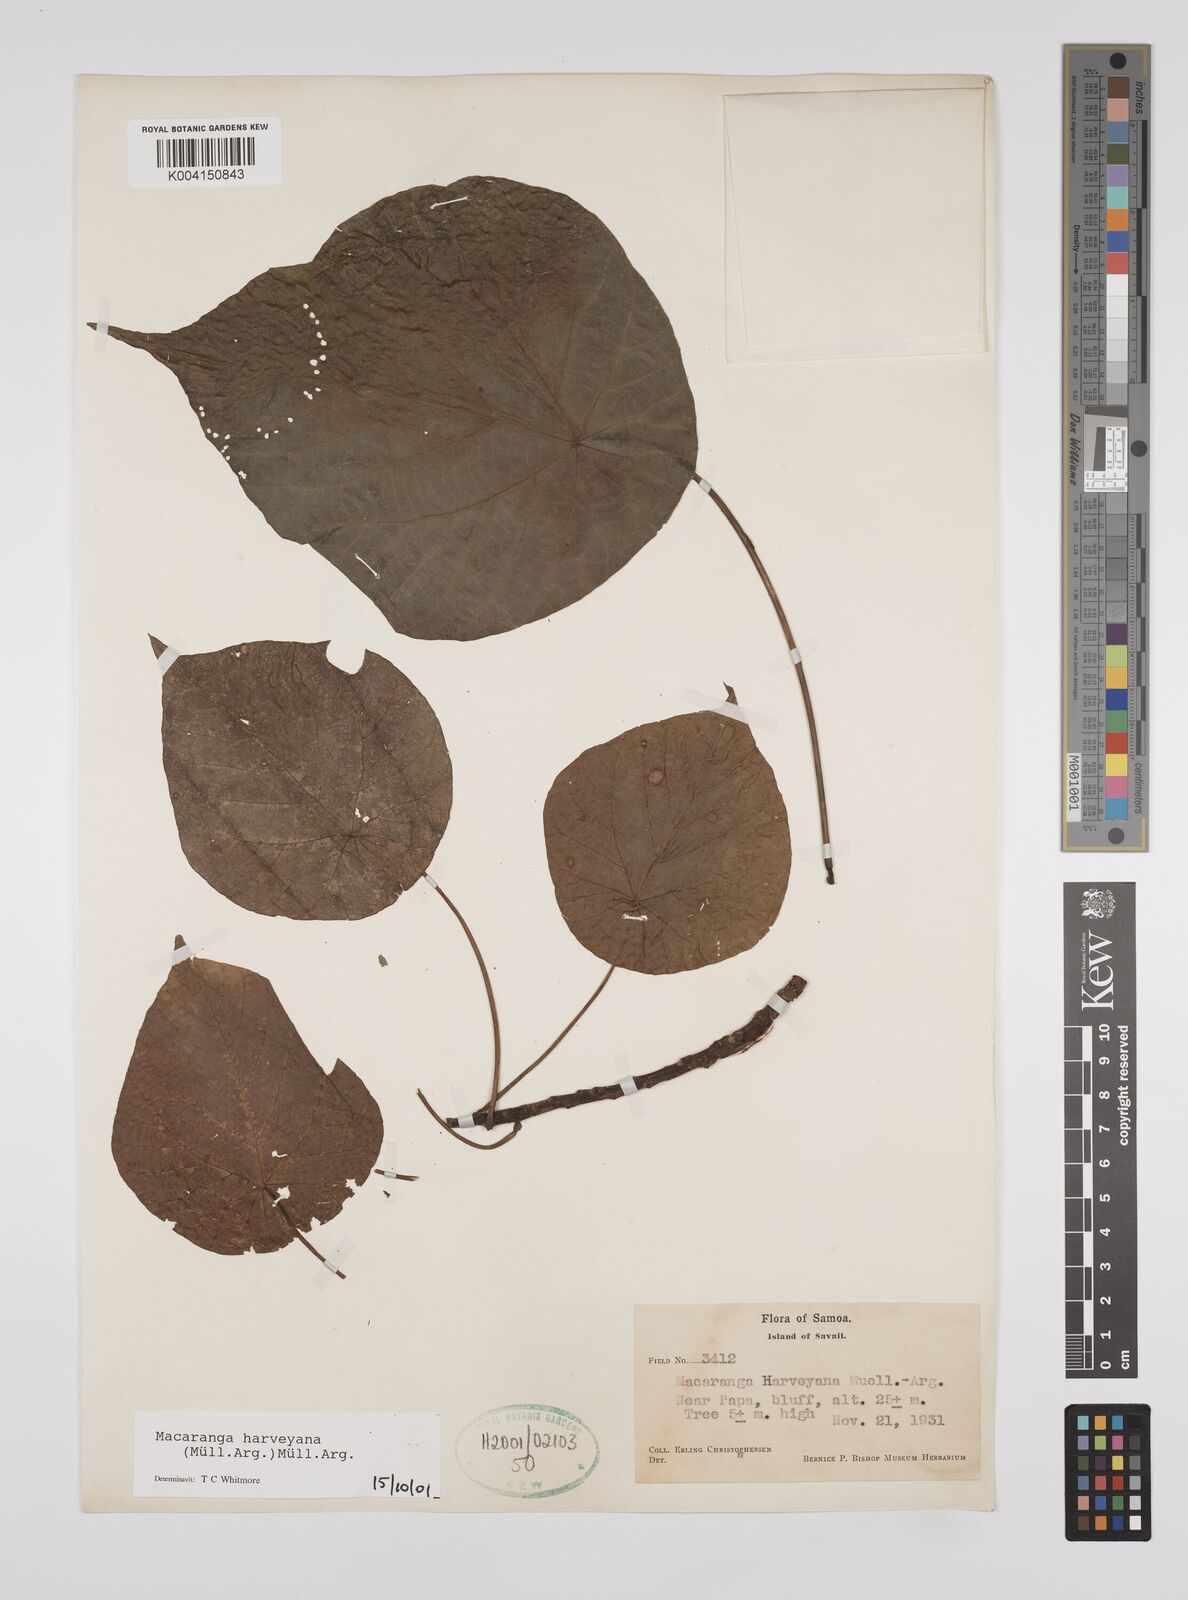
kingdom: Plantae
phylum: Tracheophyta
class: Magnoliopsida
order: Malpighiales
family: Euphorbiaceae
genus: Macaranga
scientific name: Macaranga harveyana
